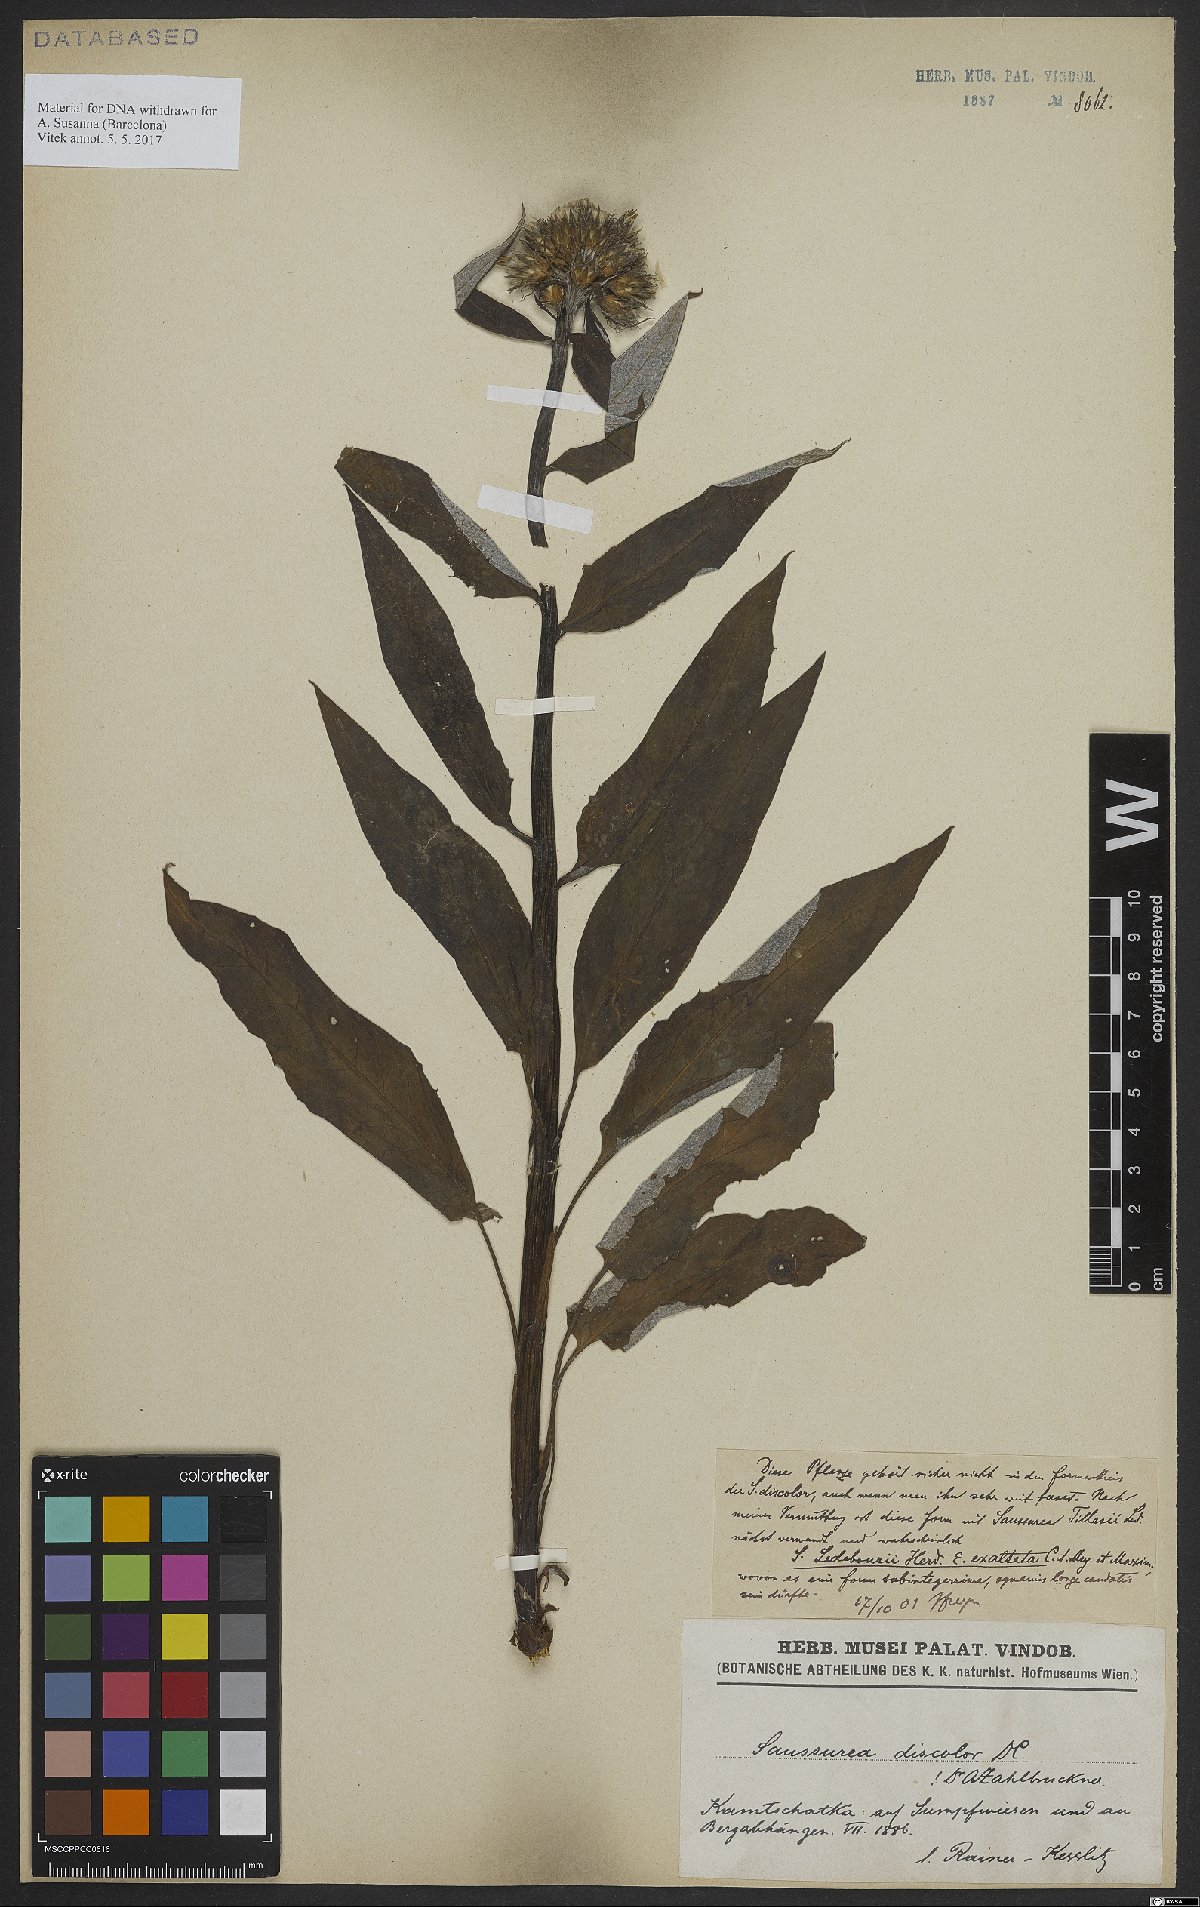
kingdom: Plantae
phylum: Tracheophyta
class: Magnoliopsida
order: Asterales
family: Asteraceae
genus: Saussurea
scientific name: Saussurea nuda
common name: Chaffless saw-wort
